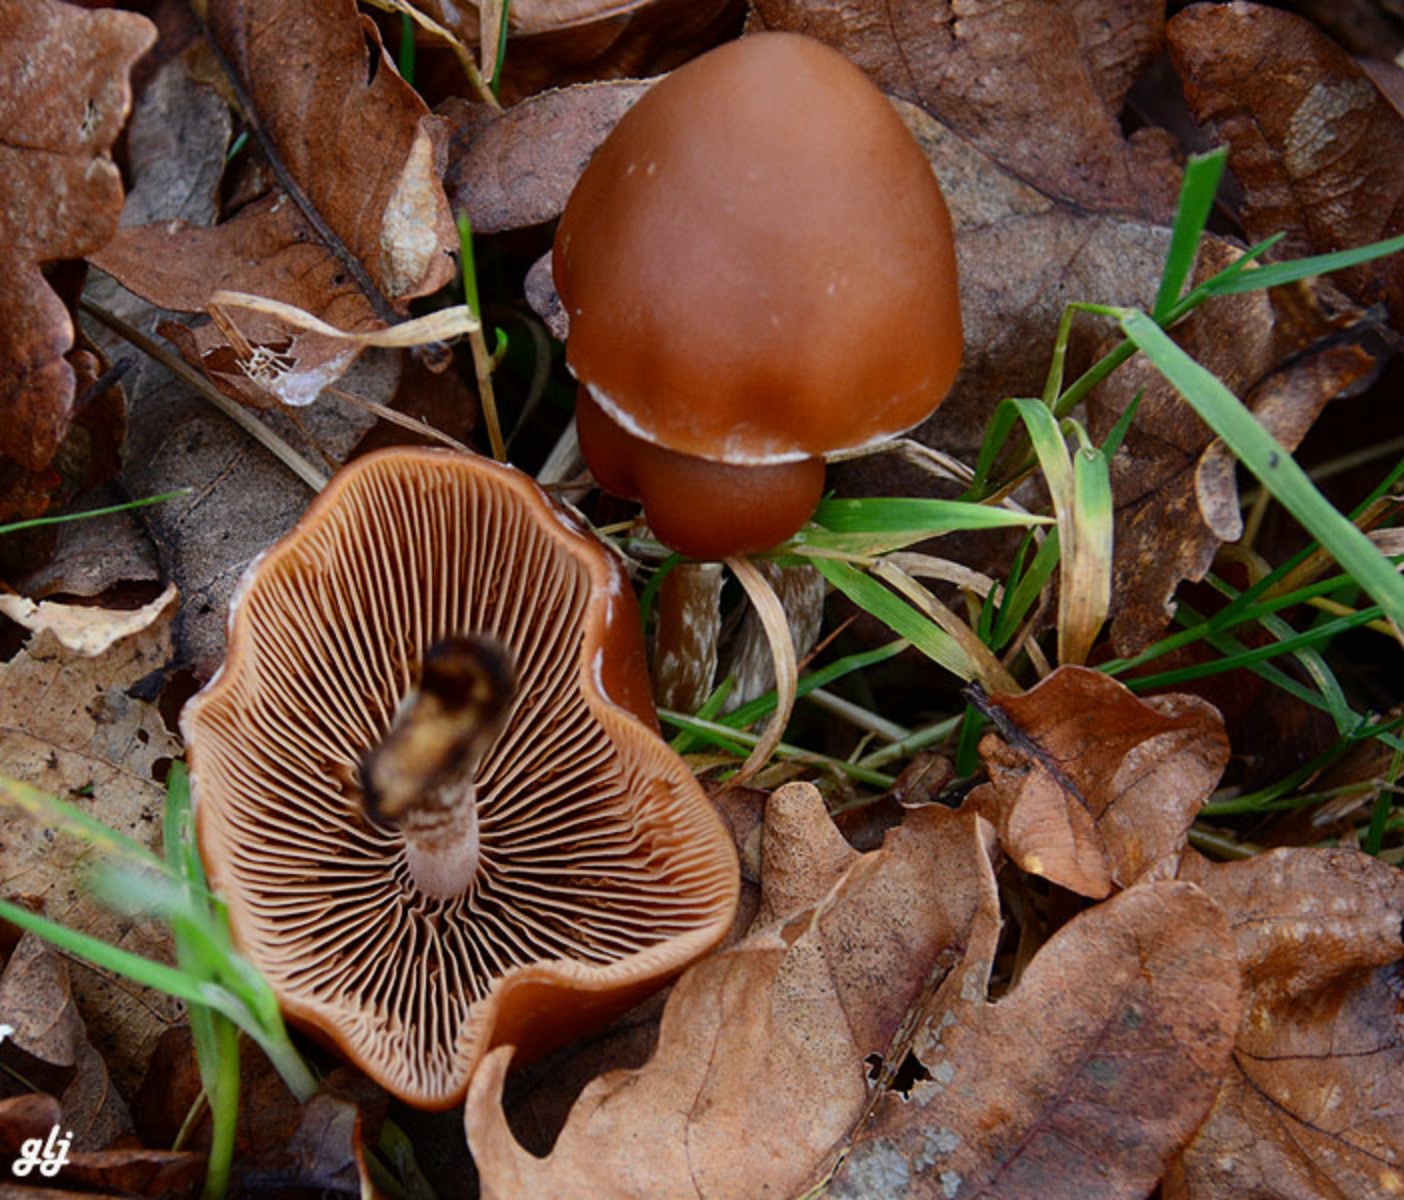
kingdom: Fungi
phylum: Basidiomycota
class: Agaricomycetes
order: Agaricales
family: Psathyrellaceae
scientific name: Psathyrellaceae
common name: mørkhatfamilien
